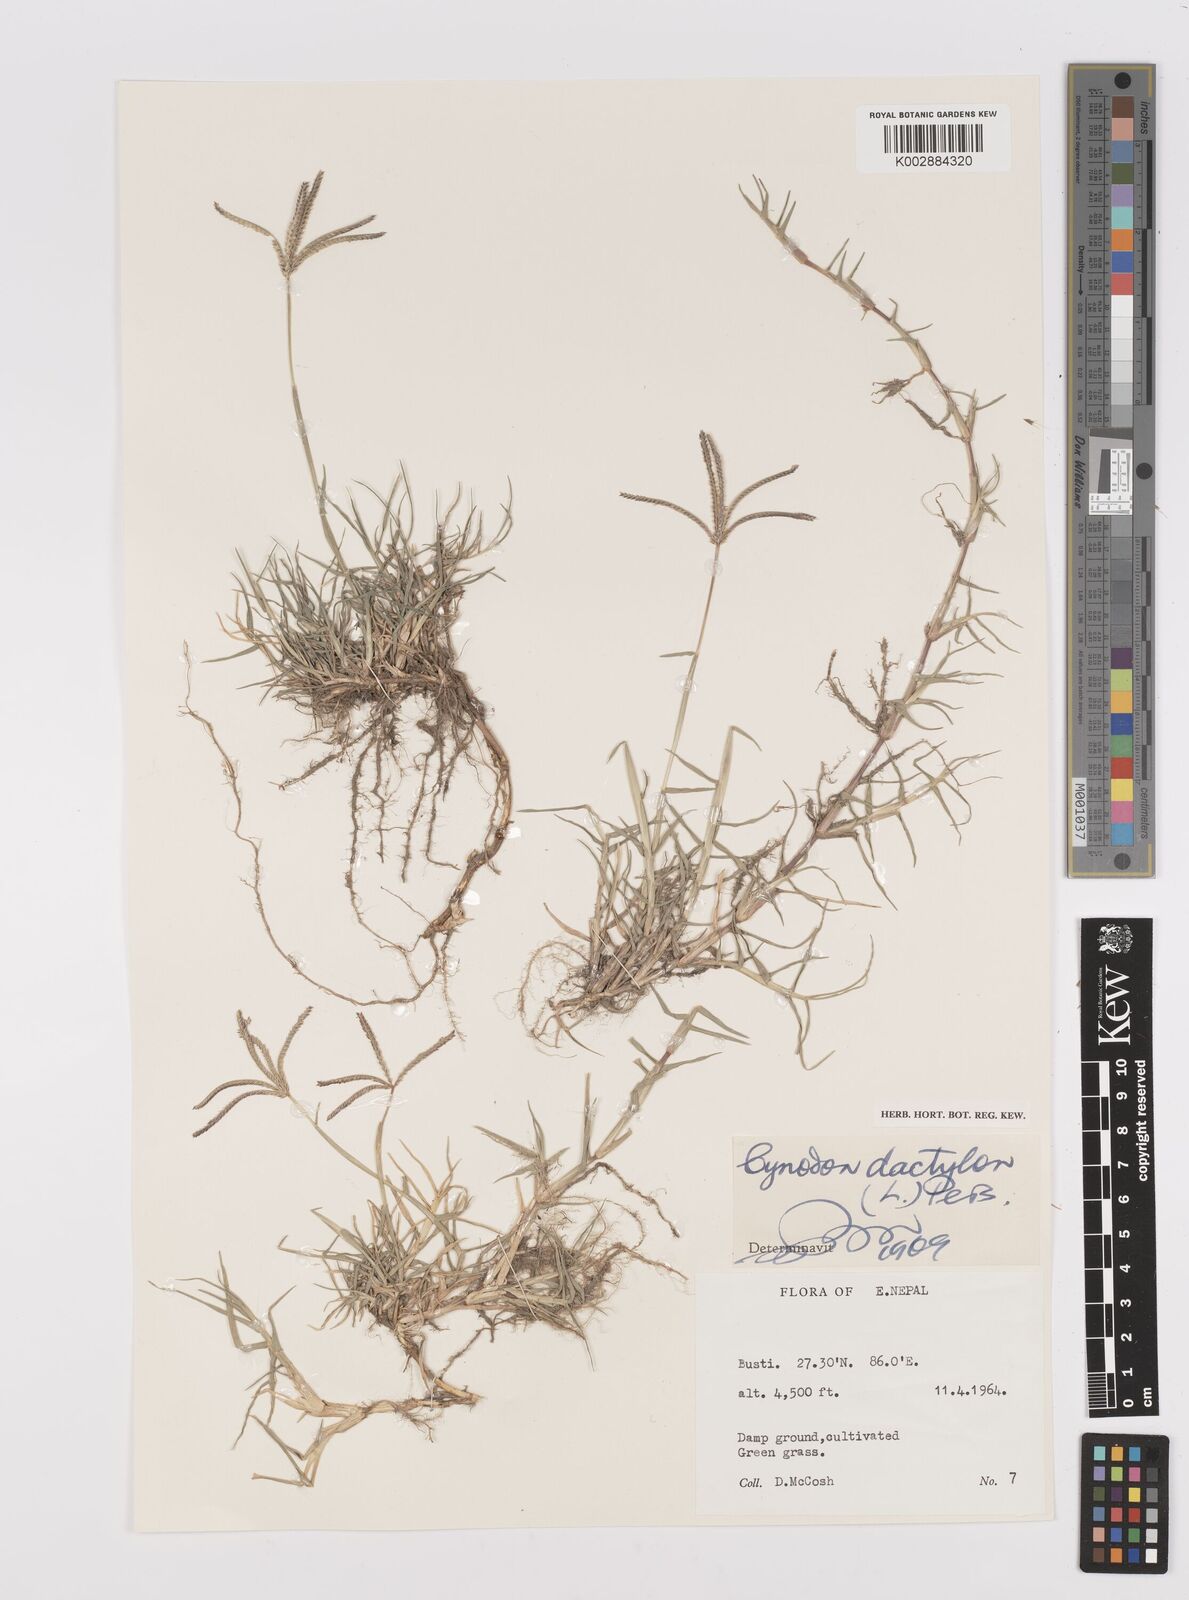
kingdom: Plantae
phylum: Tracheophyta
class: Liliopsida
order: Poales
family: Poaceae
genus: Cynodon
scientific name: Cynodon dactylon
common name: Bermuda grass
